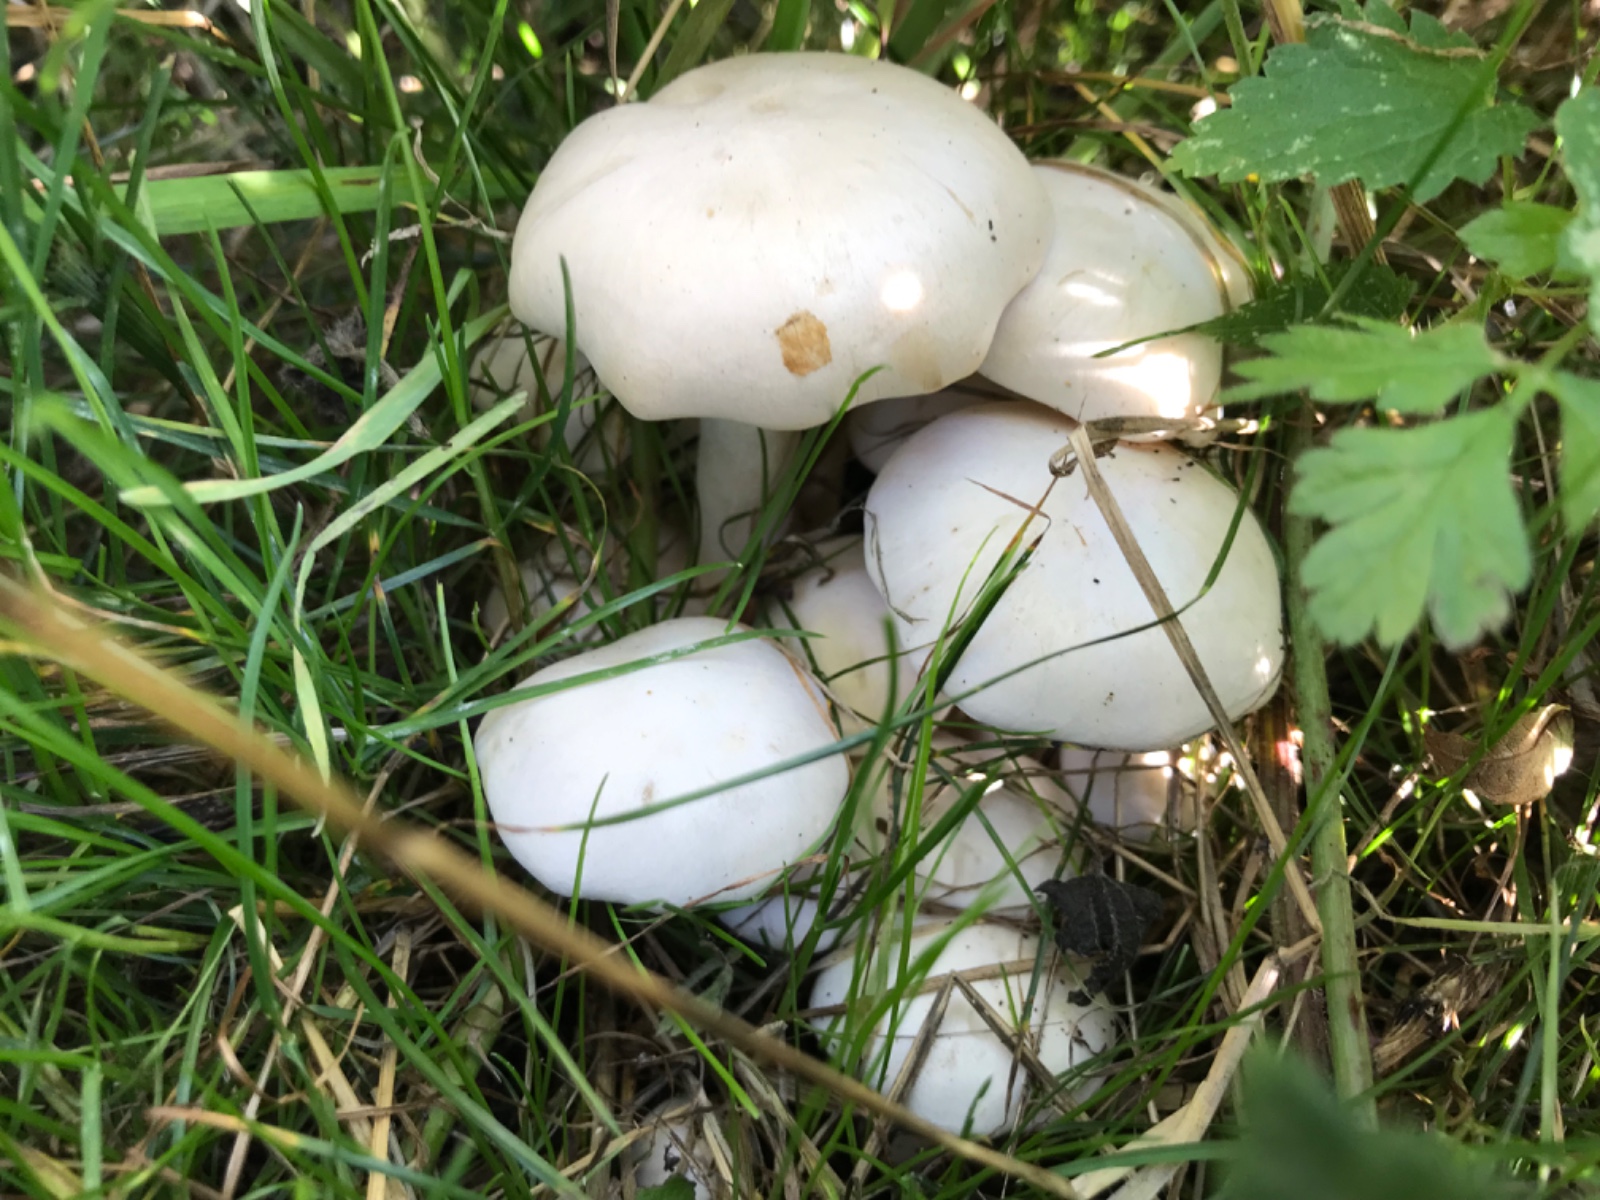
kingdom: Fungi
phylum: Basidiomycota
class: Agaricomycetes
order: Agaricales
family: Tricholomataceae
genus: Leucocybe
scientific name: Leucocybe connata
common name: knippe-tragthat
